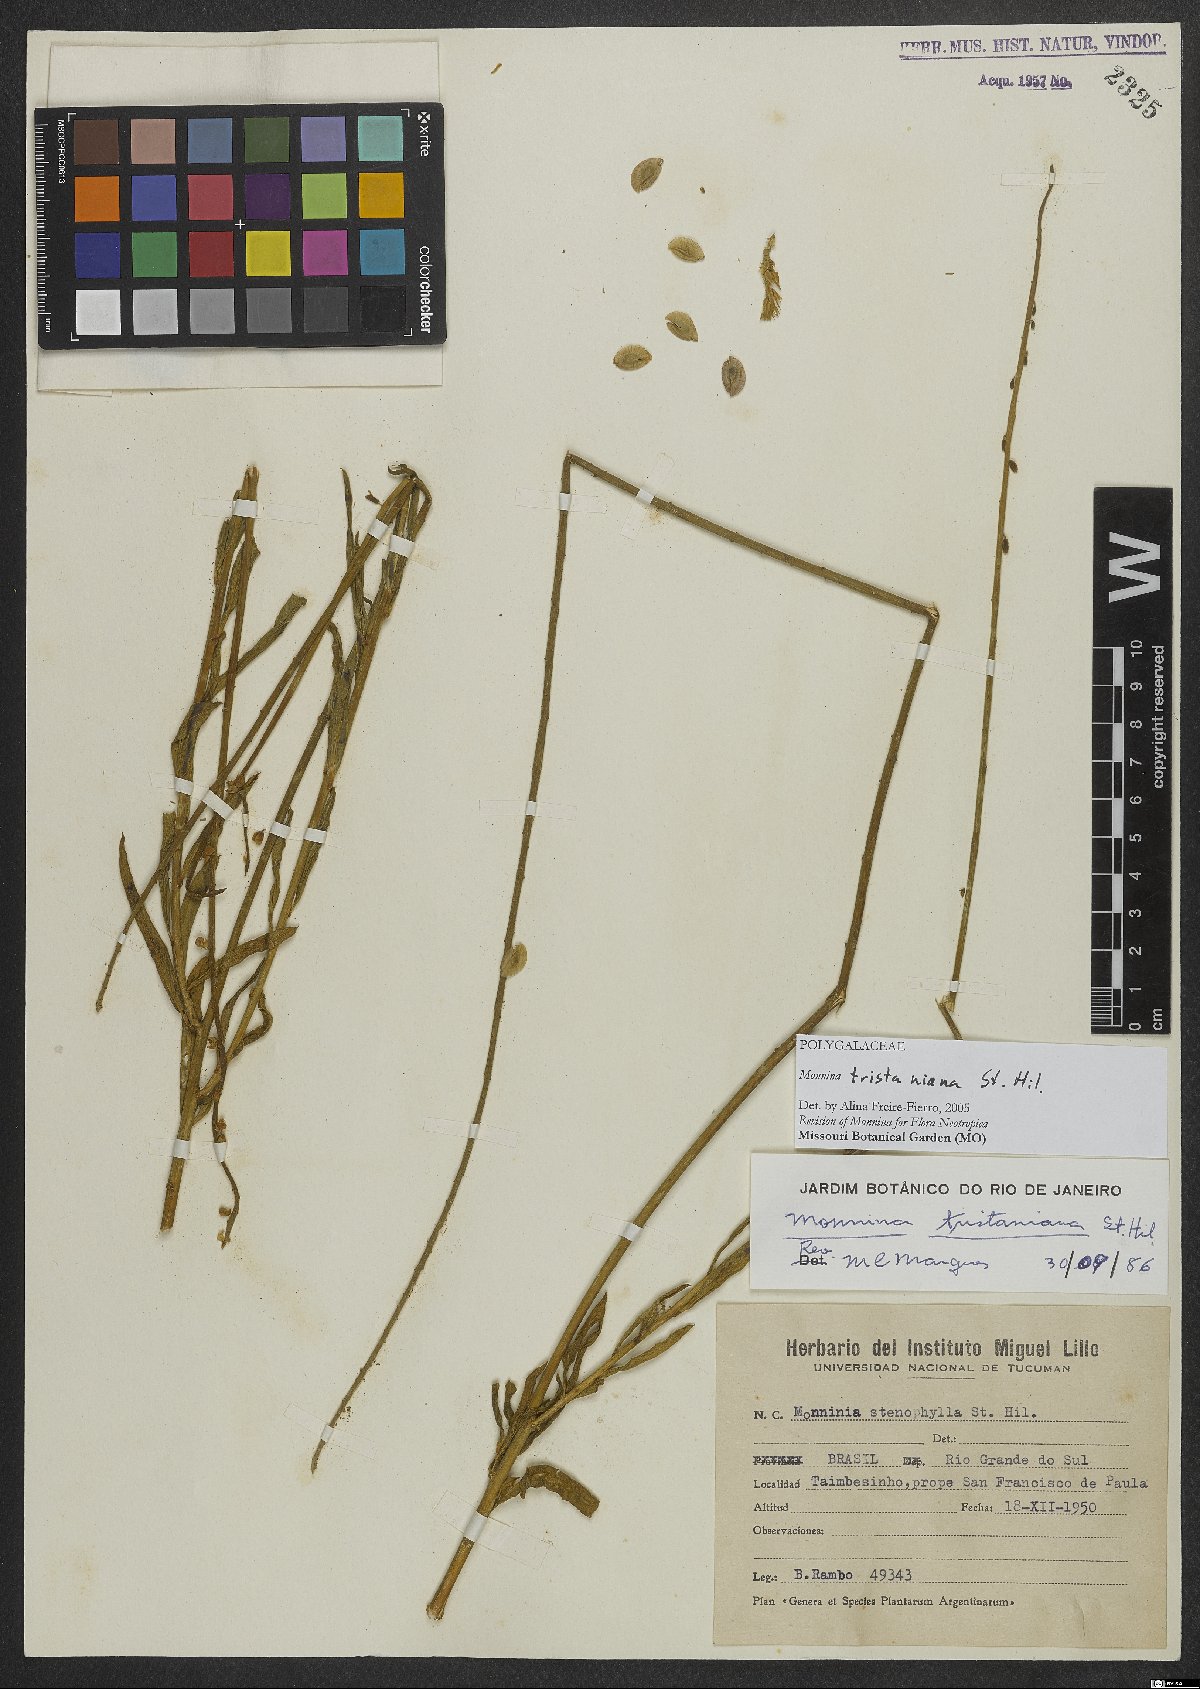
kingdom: Plantae
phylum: Tracheophyta
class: Magnoliopsida
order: Fabales
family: Polygalaceae
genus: Monnina
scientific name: Monnina tristaniana
